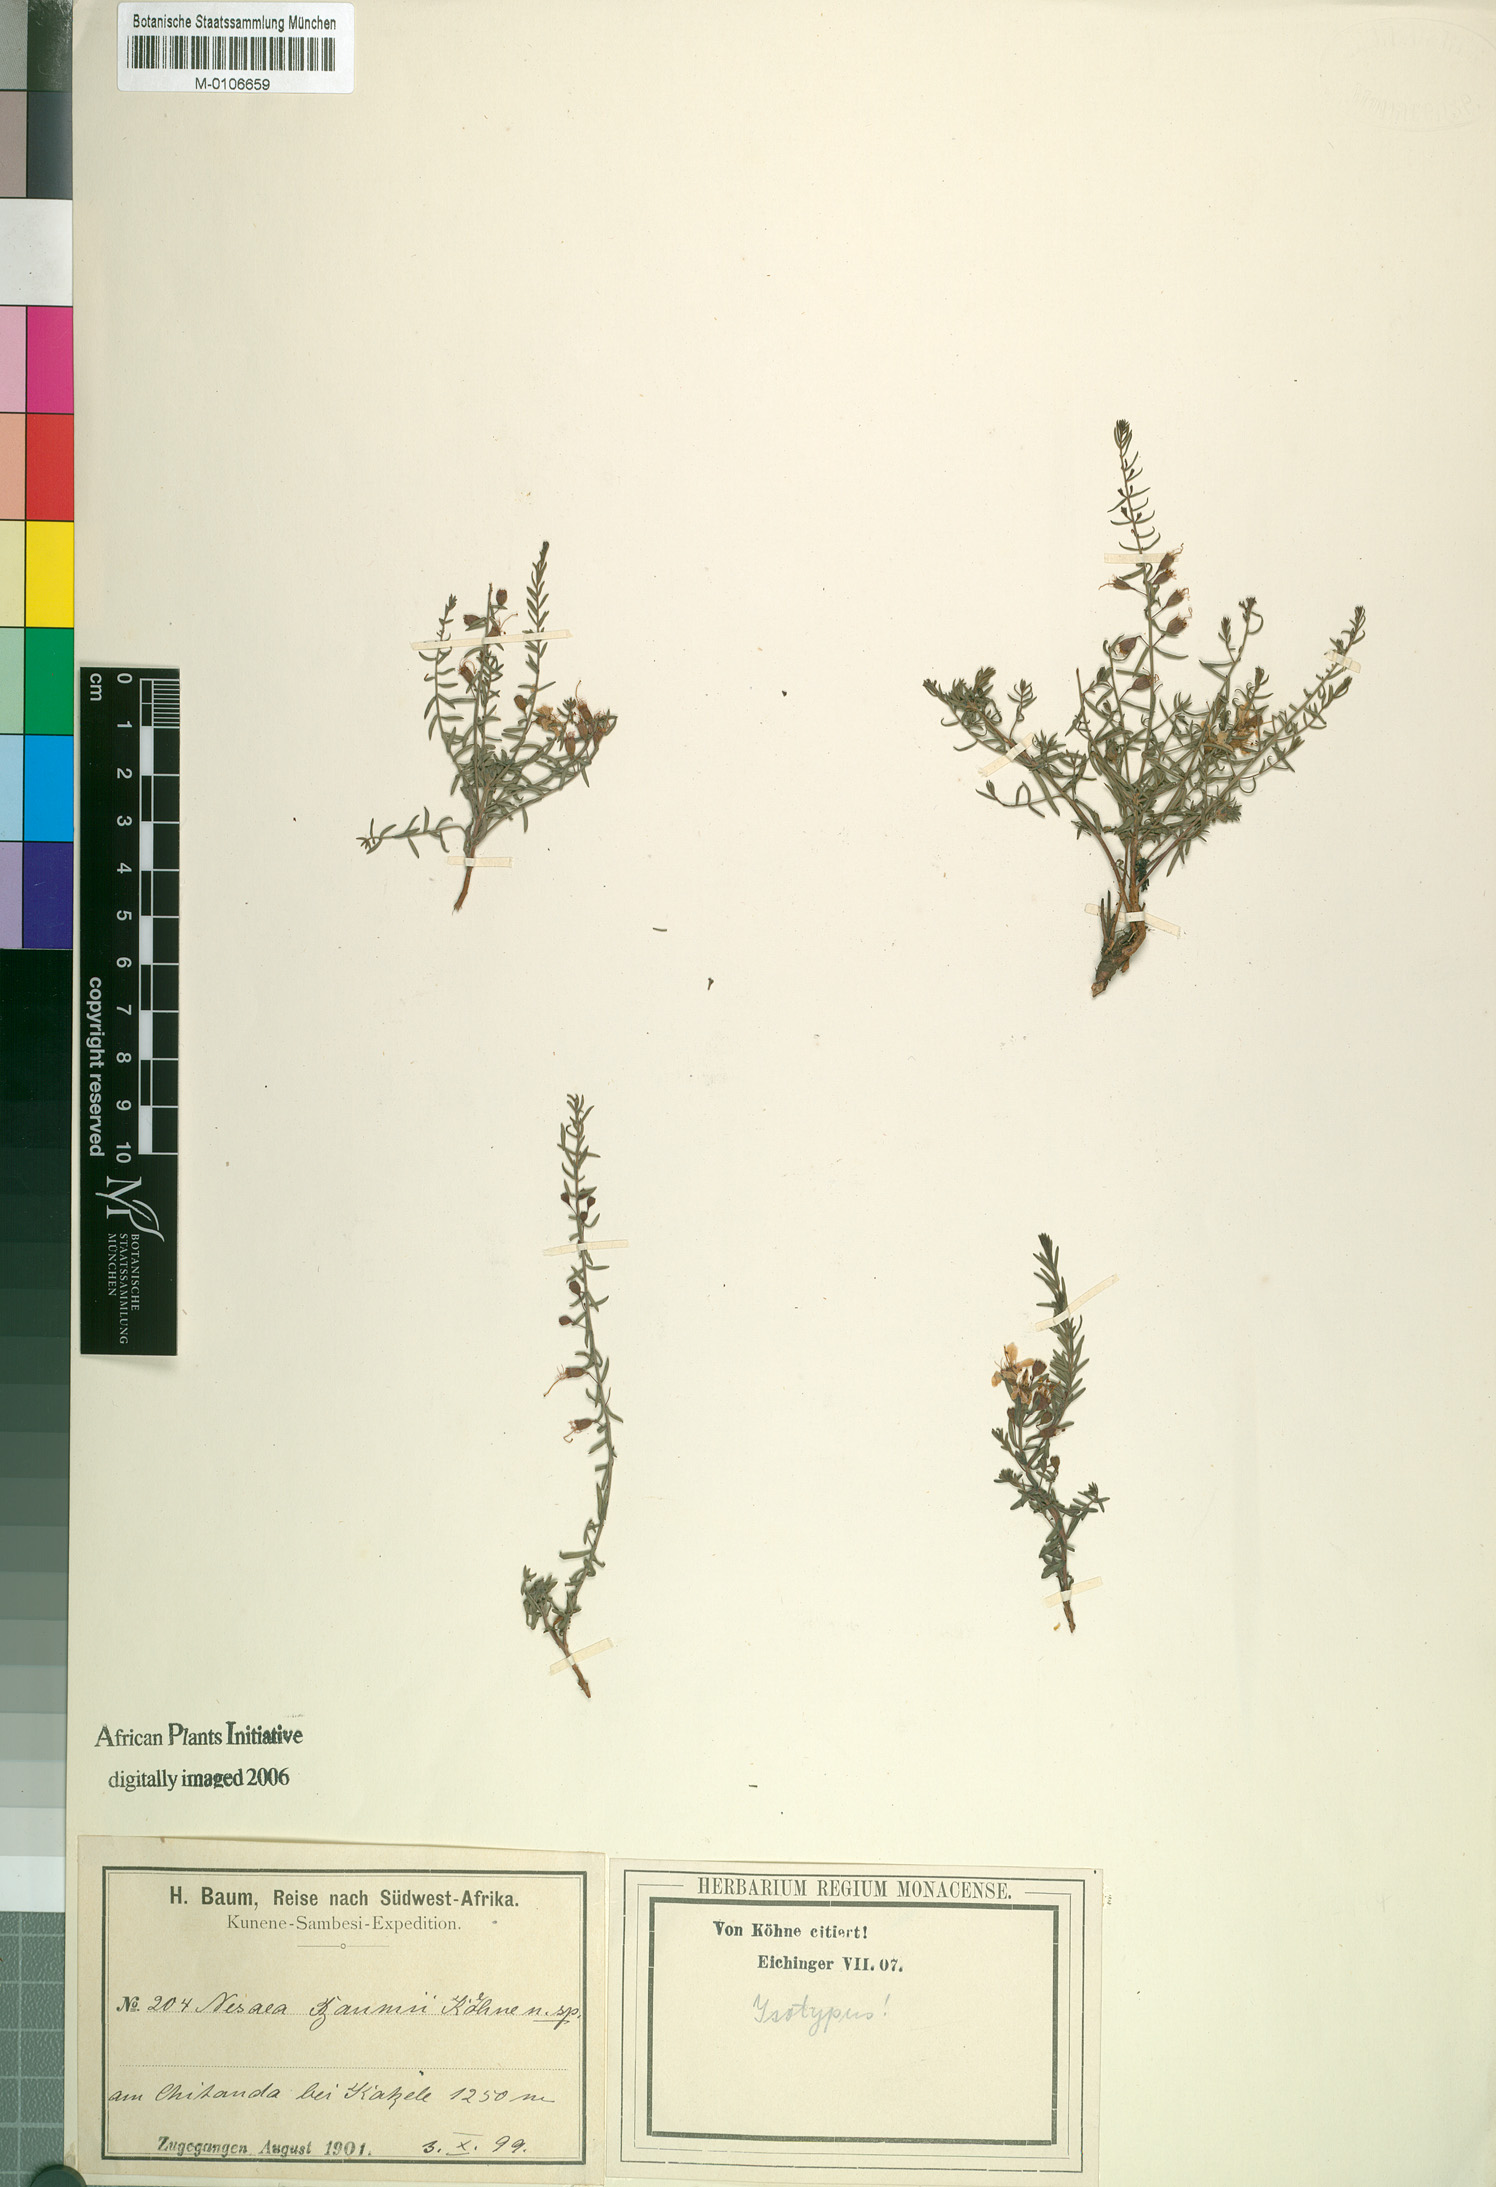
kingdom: Plantae
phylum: Tracheophyta
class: Magnoliopsida
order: Myrtales
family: Lythraceae
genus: Ammannia
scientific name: Ammannia baumii
